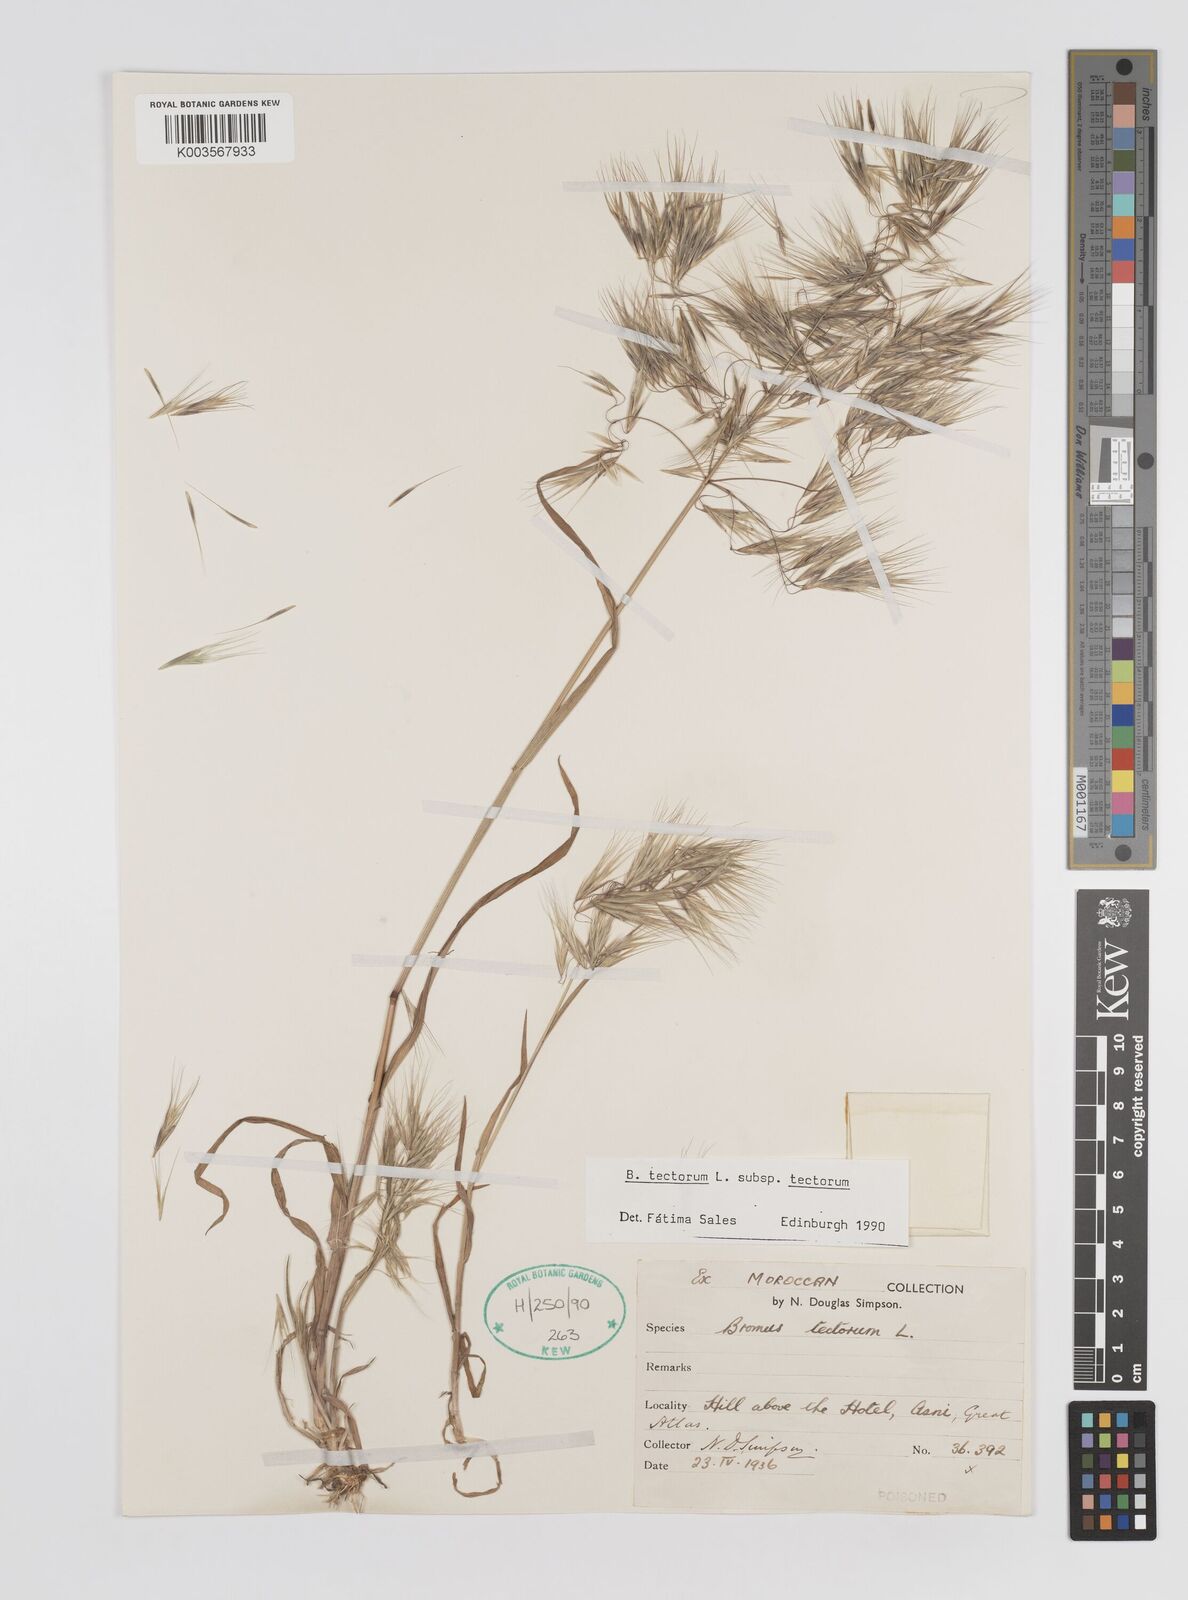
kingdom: Plantae
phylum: Tracheophyta
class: Liliopsida
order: Poales
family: Poaceae
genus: Bromus
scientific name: Bromus tectorum
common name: Cheatgrass
